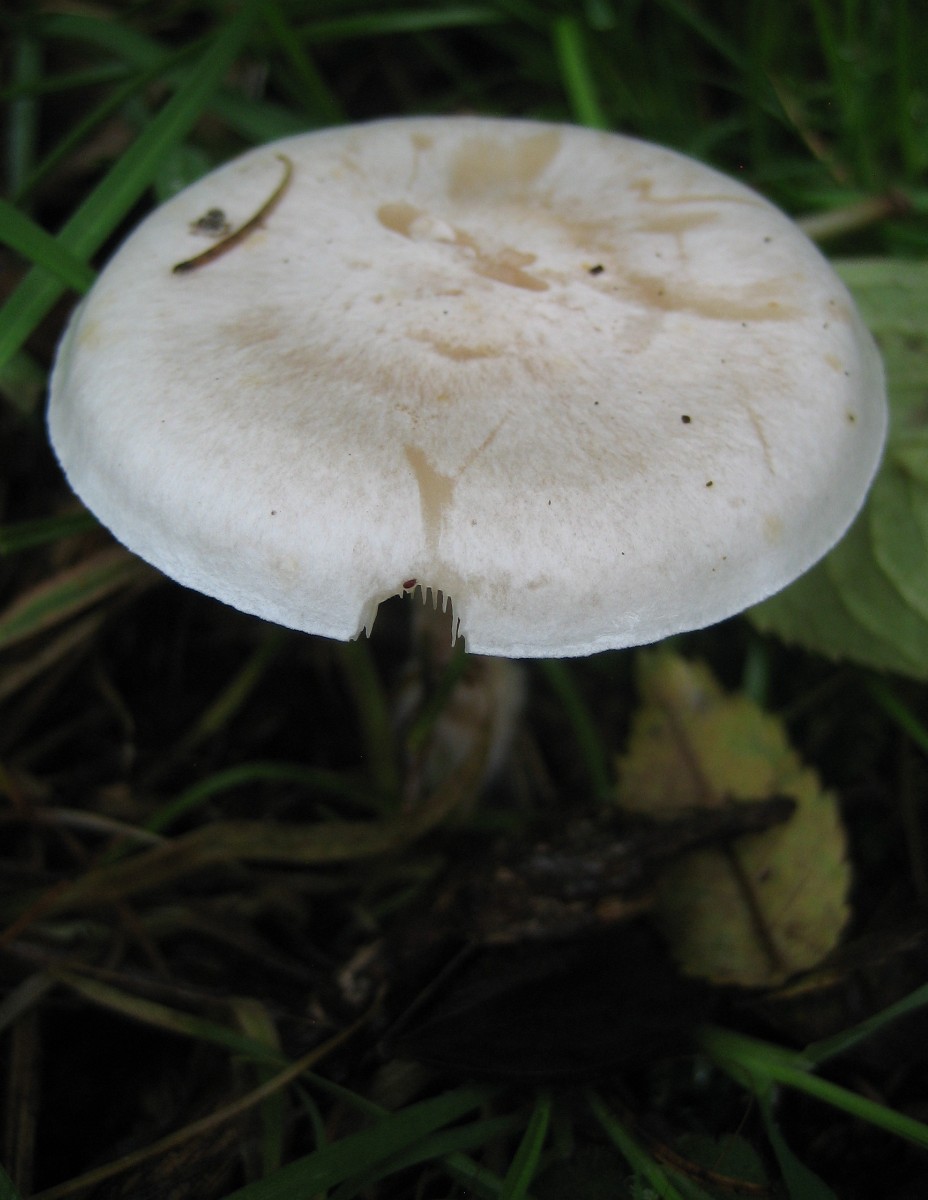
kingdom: Fungi
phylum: Basidiomycota
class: Agaricomycetes
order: Agaricales
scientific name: Agaricales
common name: champignonordenen
